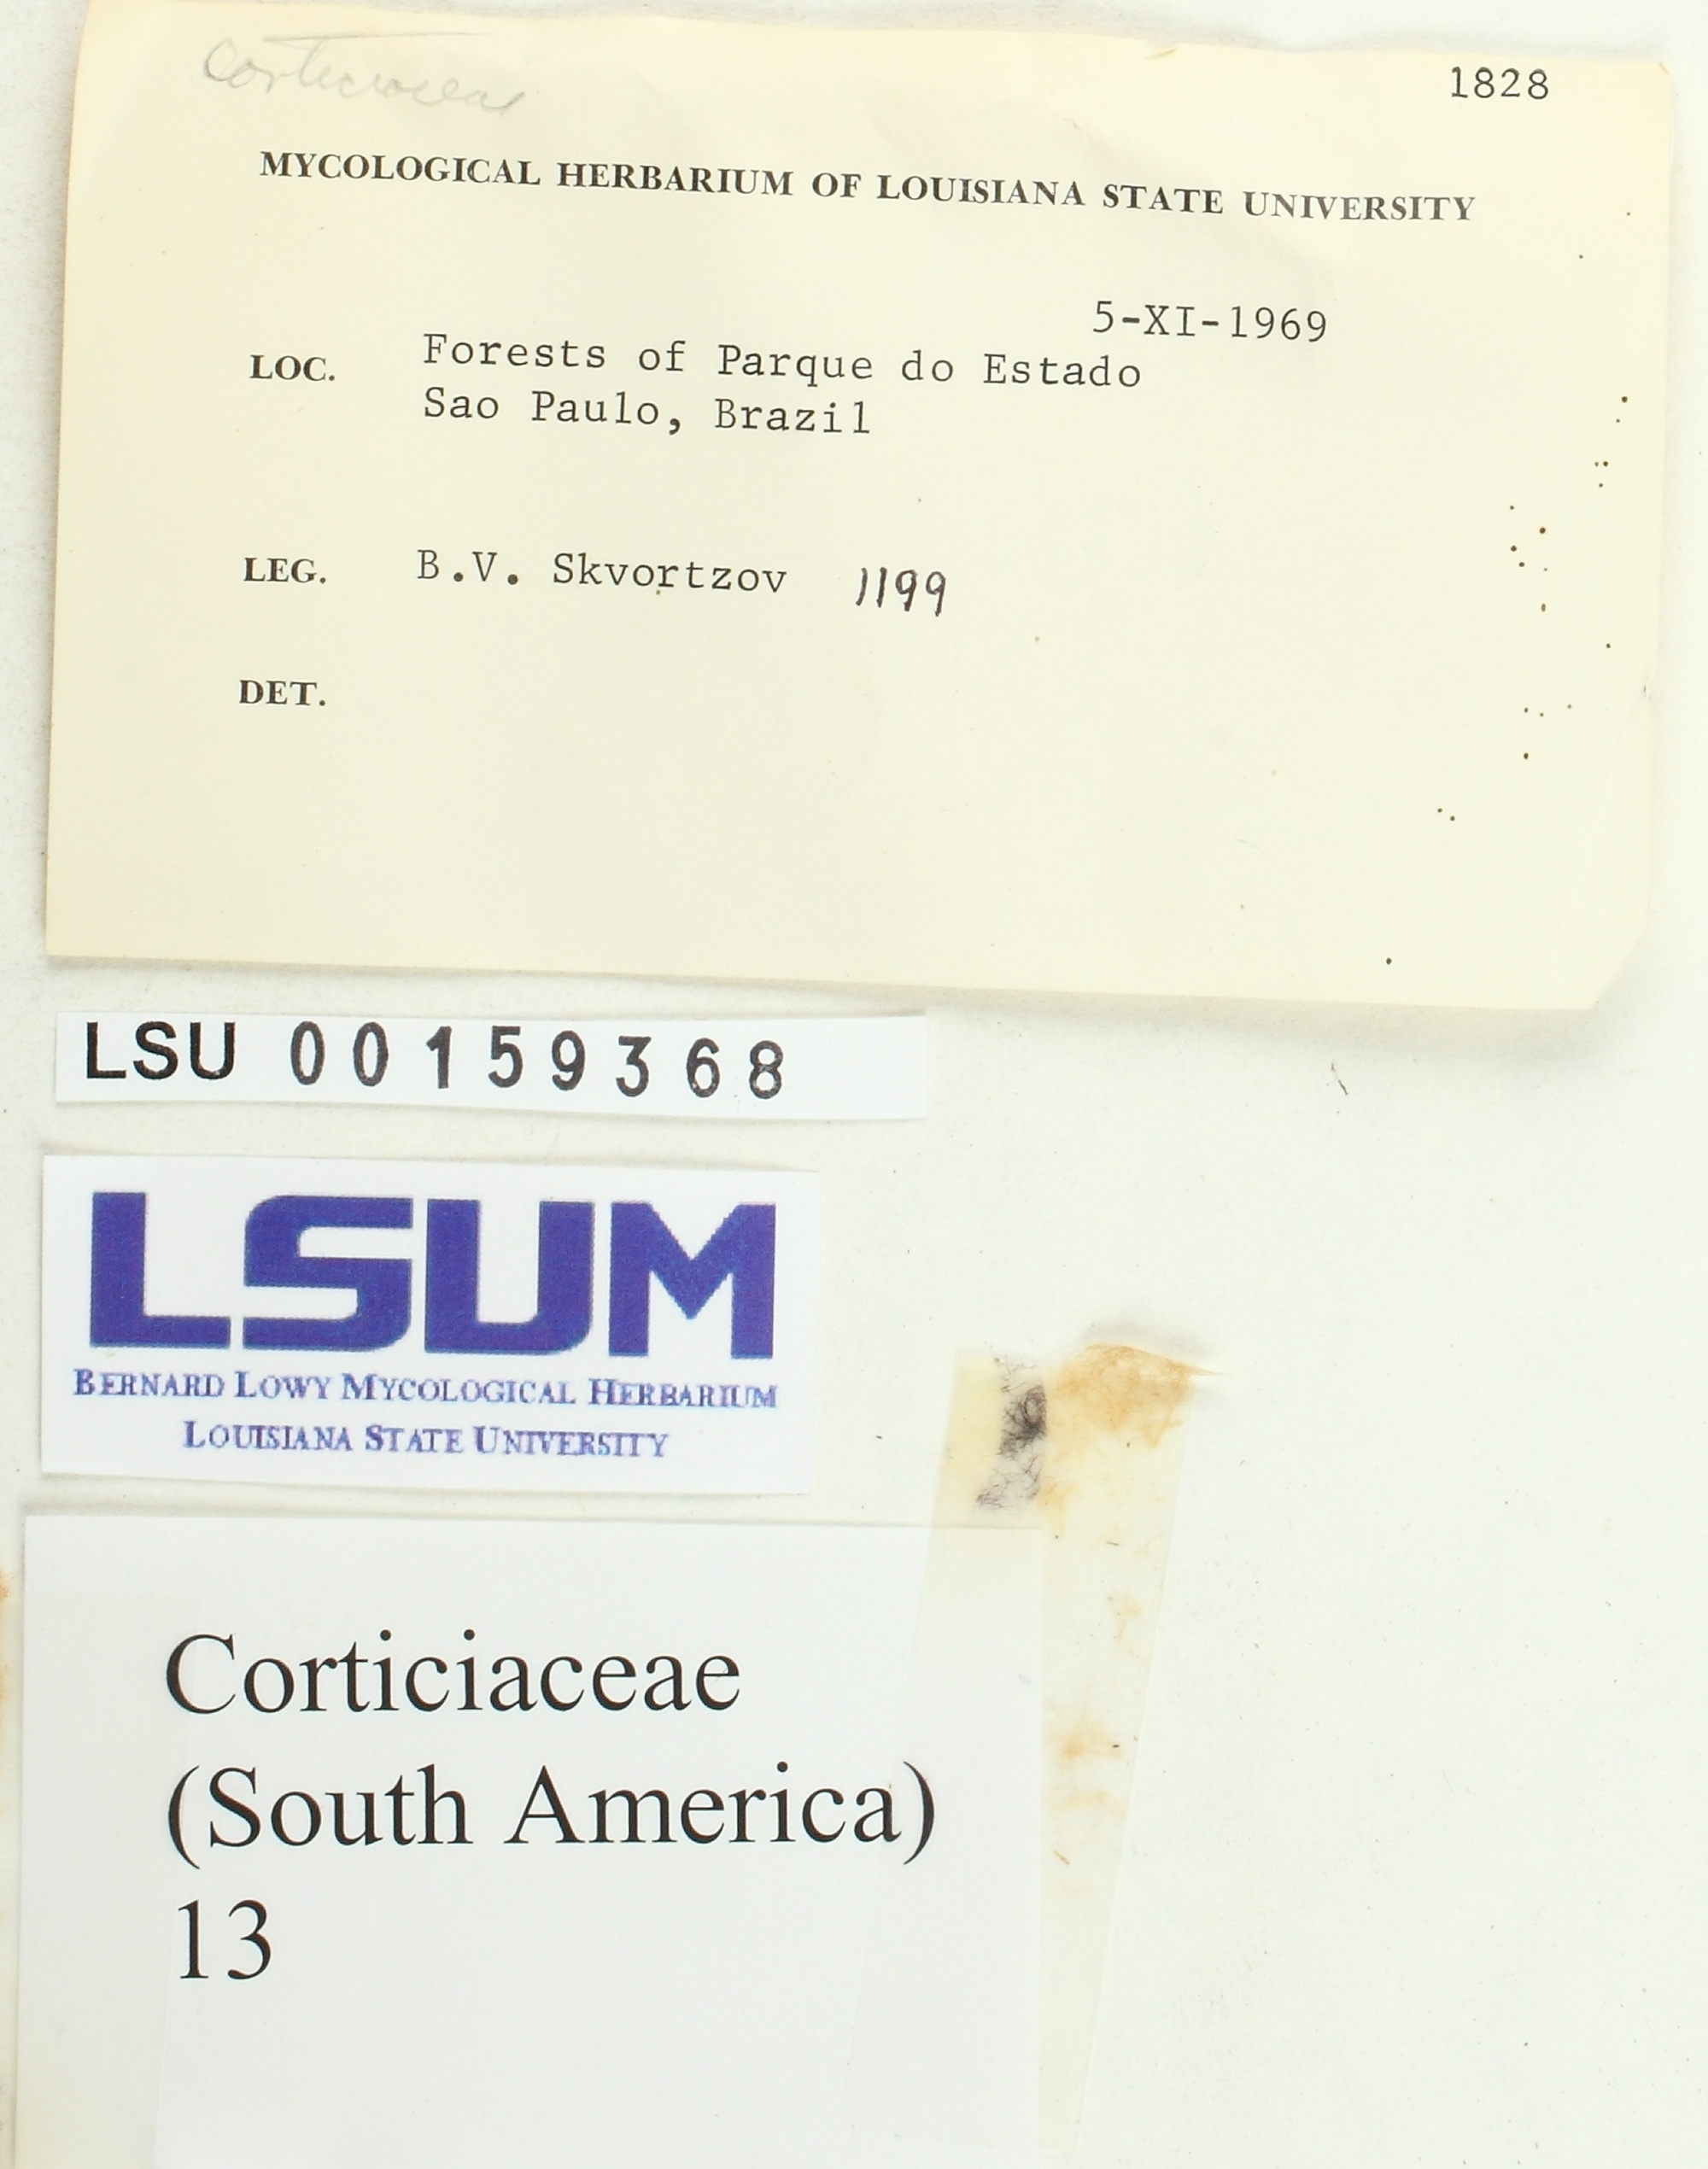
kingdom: Fungi
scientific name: Fungi
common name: Fungi
